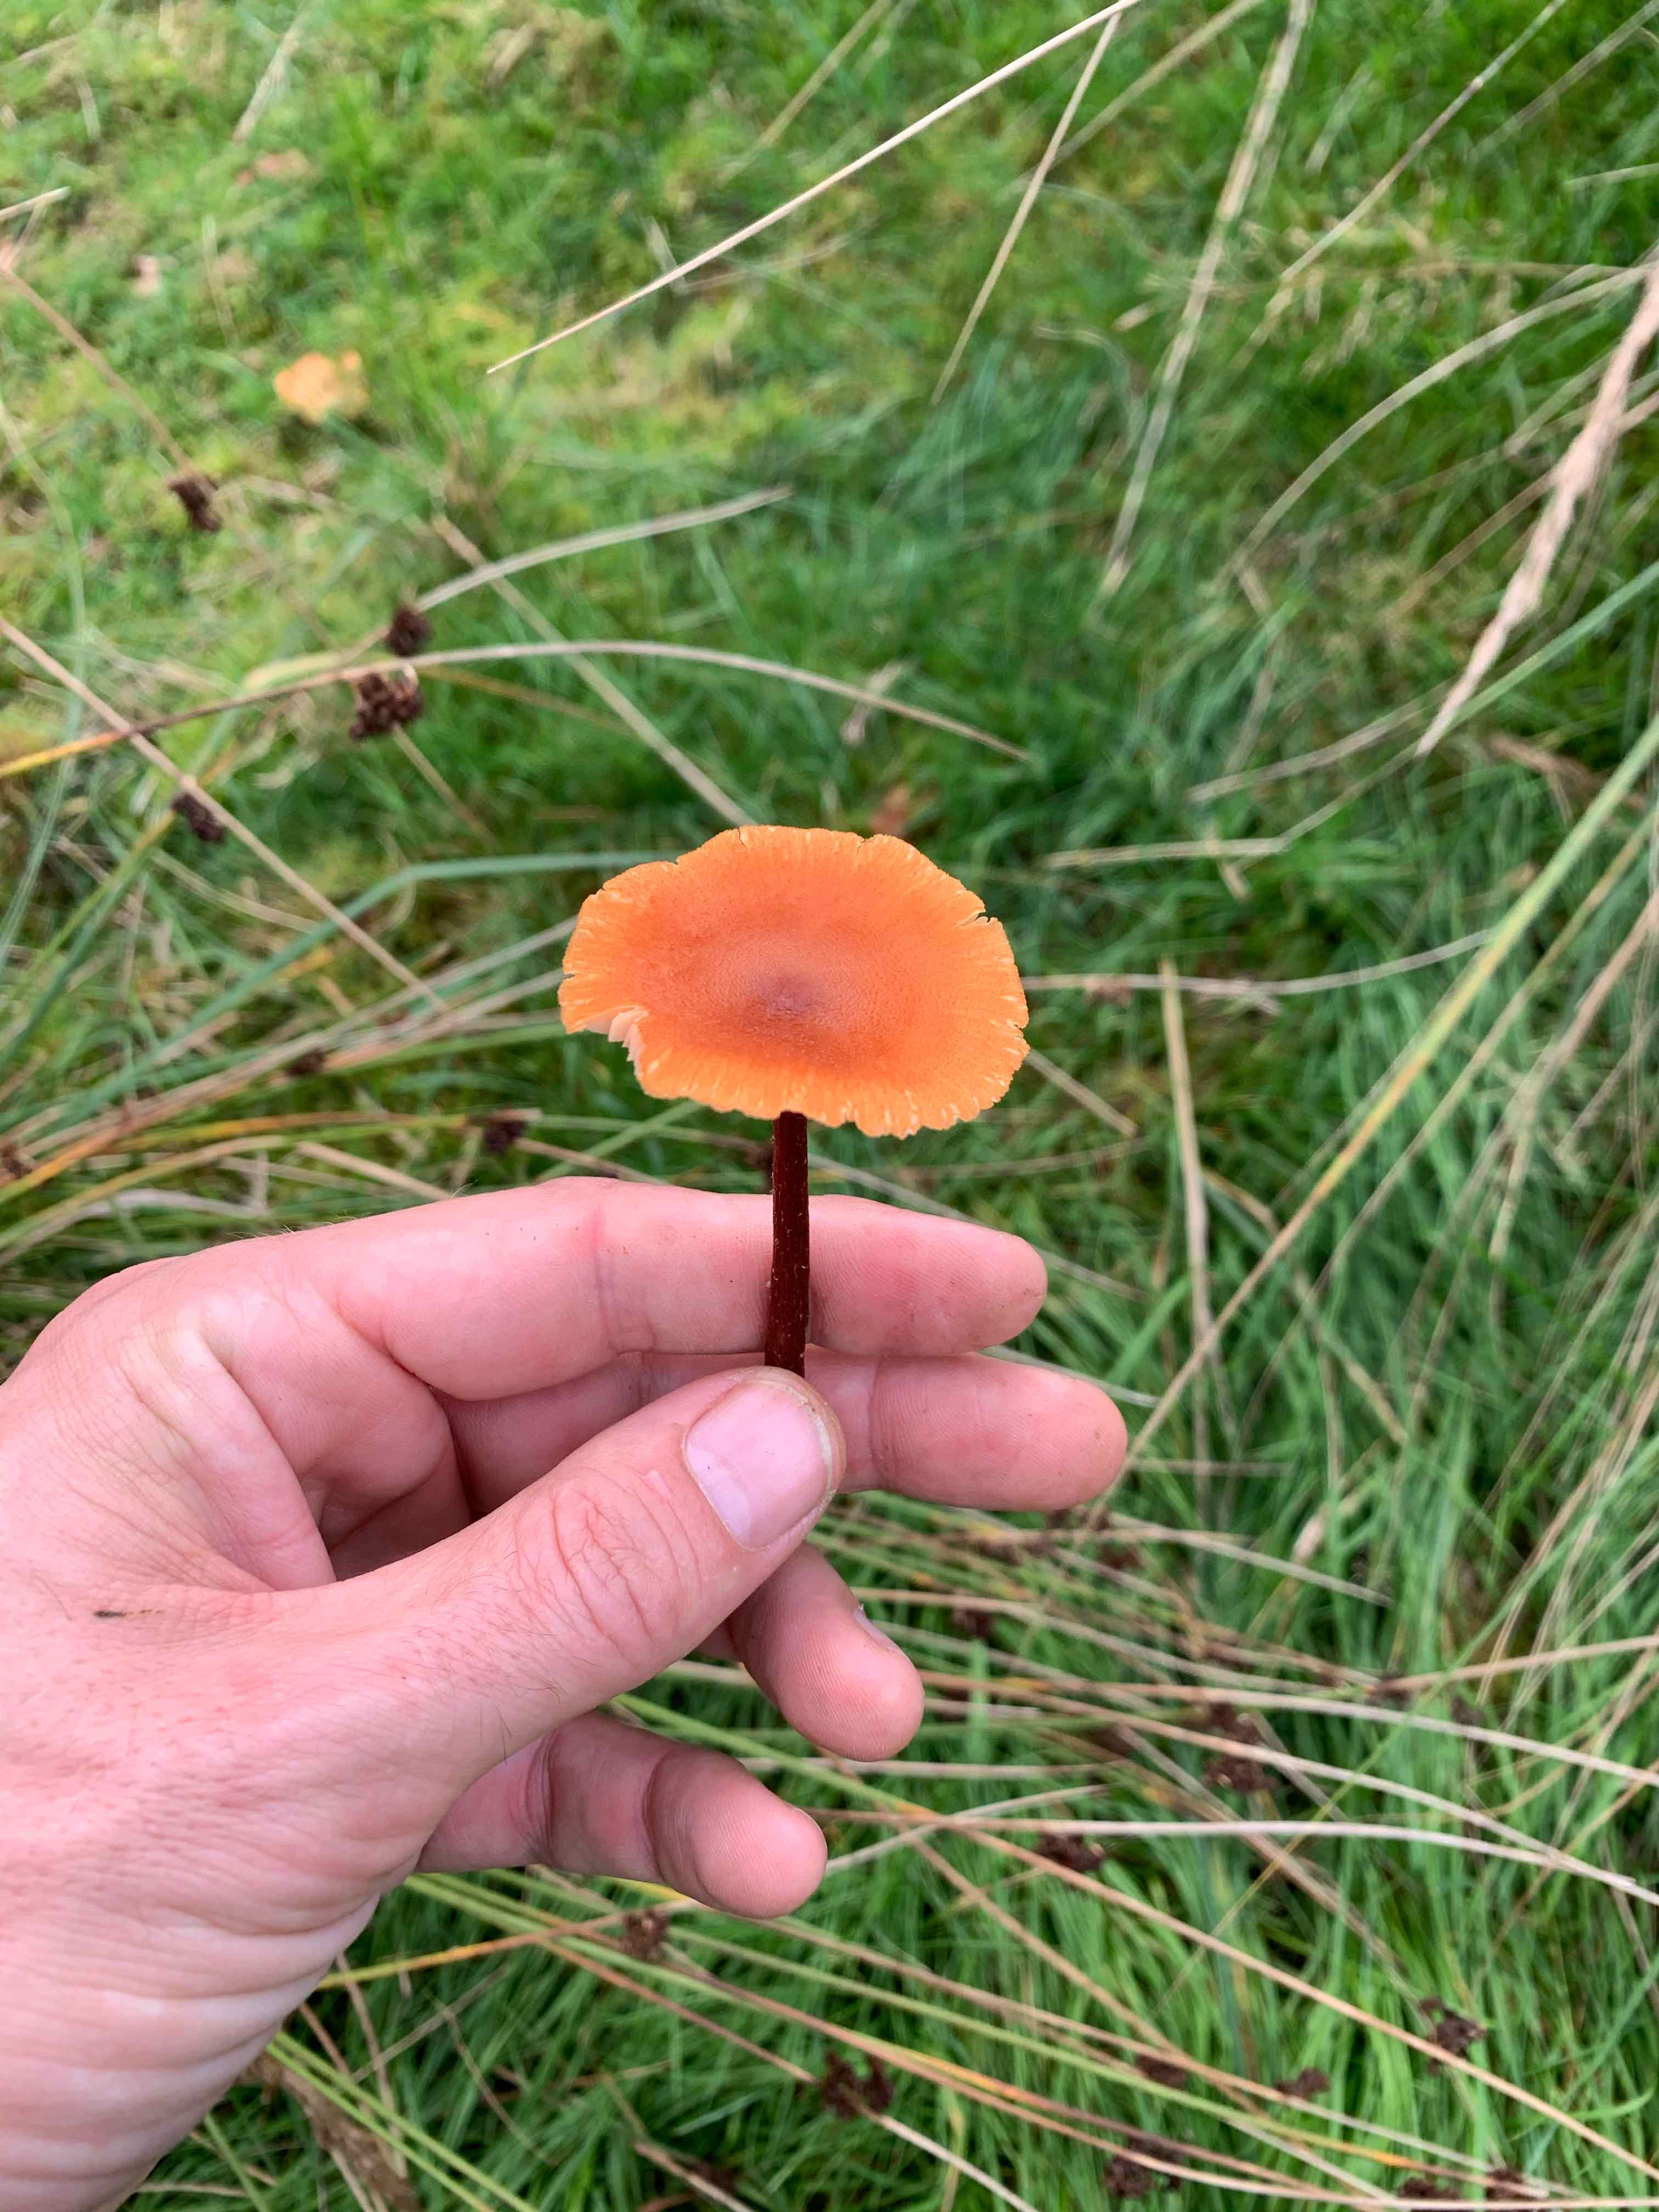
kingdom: Fungi
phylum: Basidiomycota
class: Agaricomycetes
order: Agaricales
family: Hydnangiaceae
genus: Laccaria
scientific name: Laccaria laccata
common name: rød ametysthat
